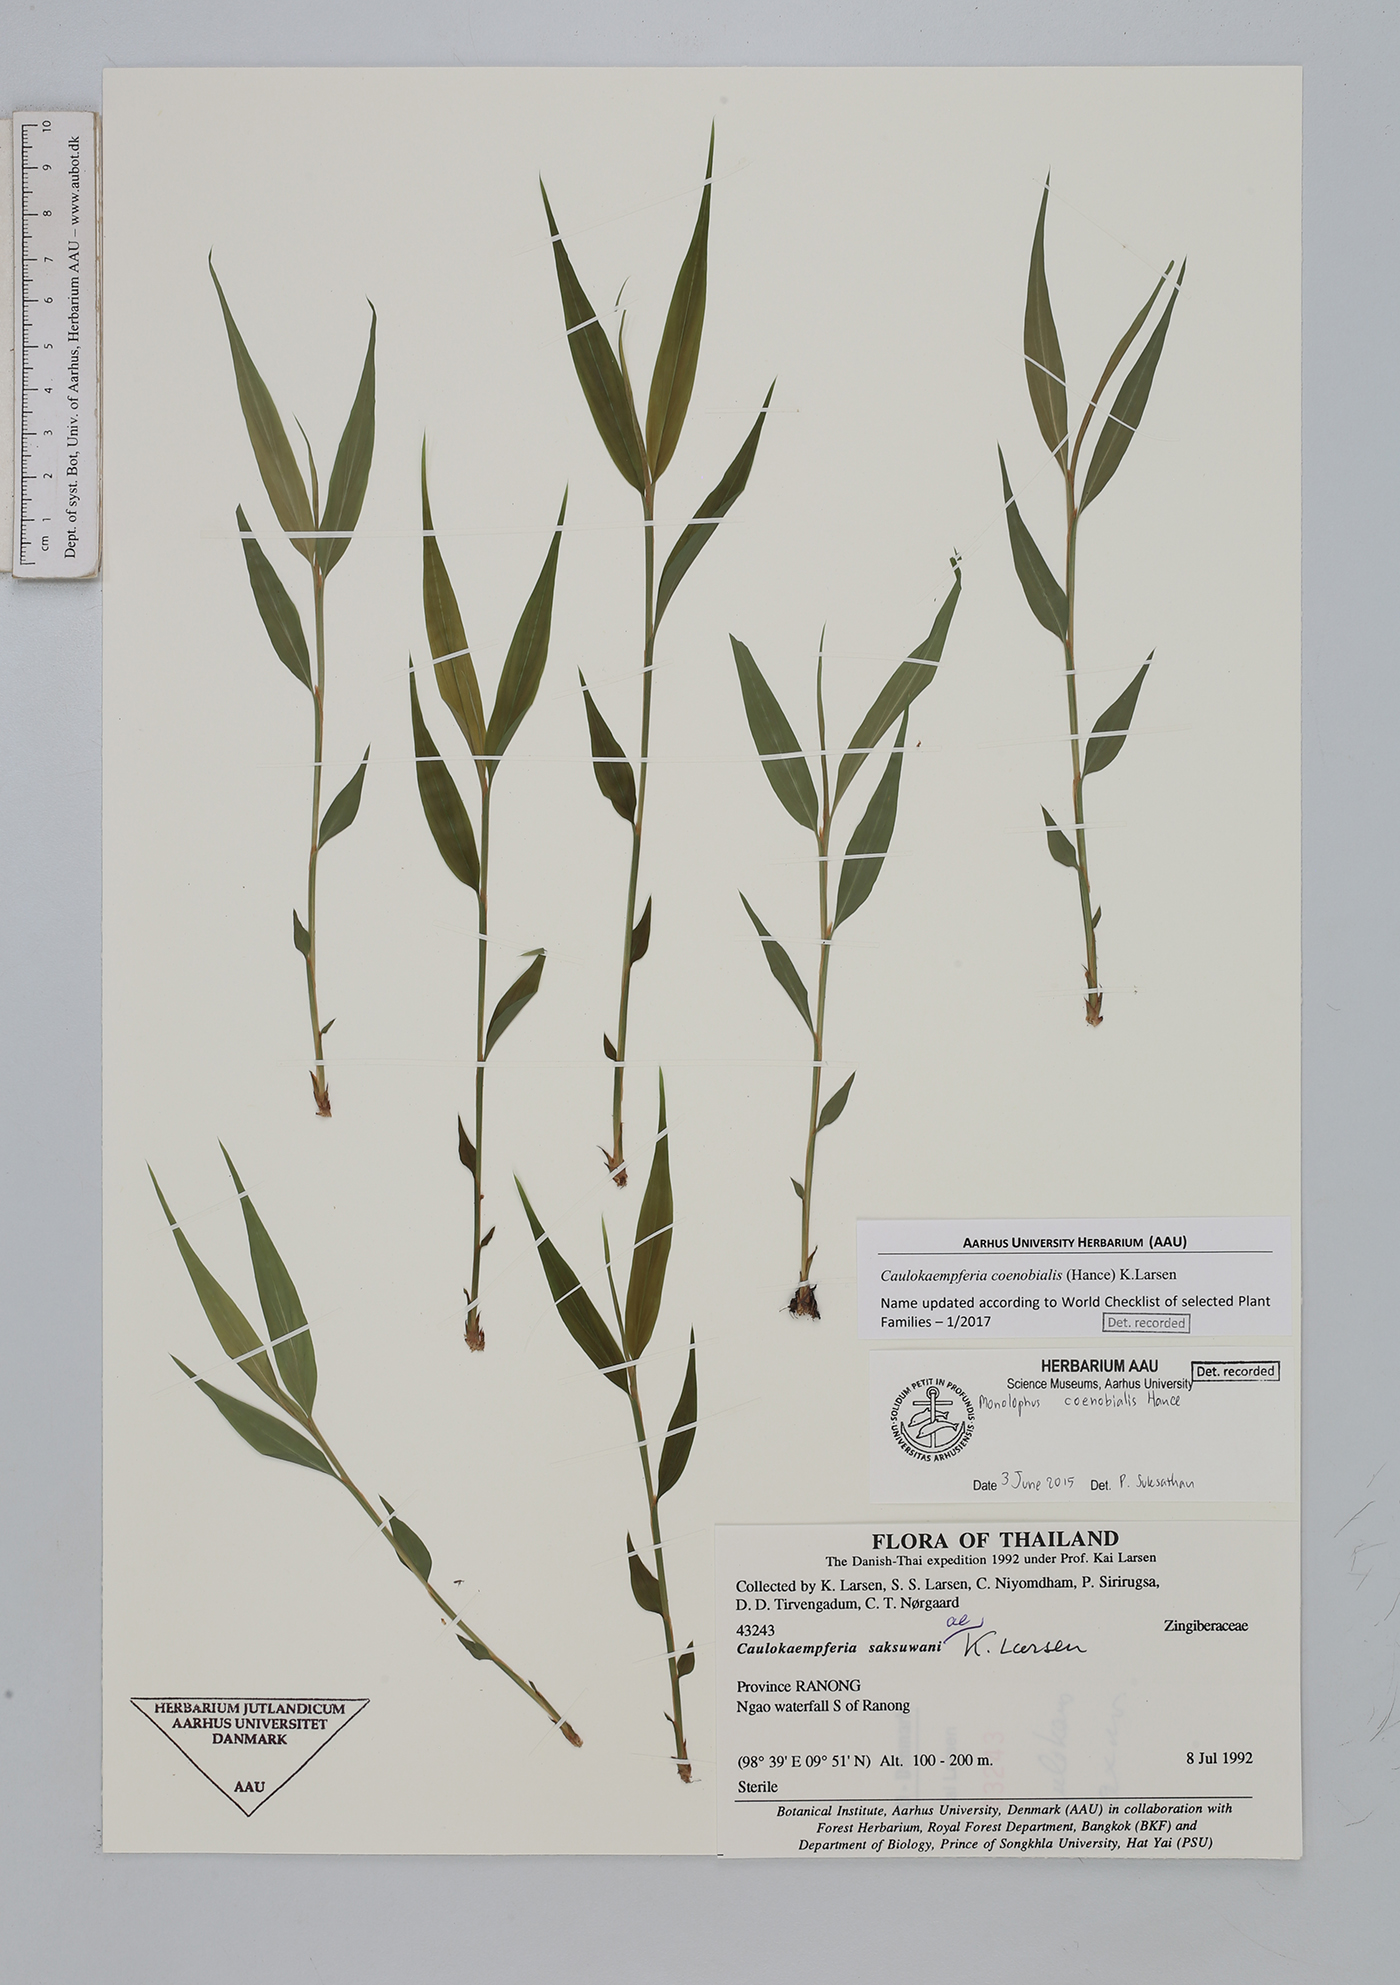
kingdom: Plantae
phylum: Tracheophyta
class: Liliopsida
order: Zingiberales
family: Zingiberaceae
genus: Caulokaempferia
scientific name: Caulokaempferia coenobialis
